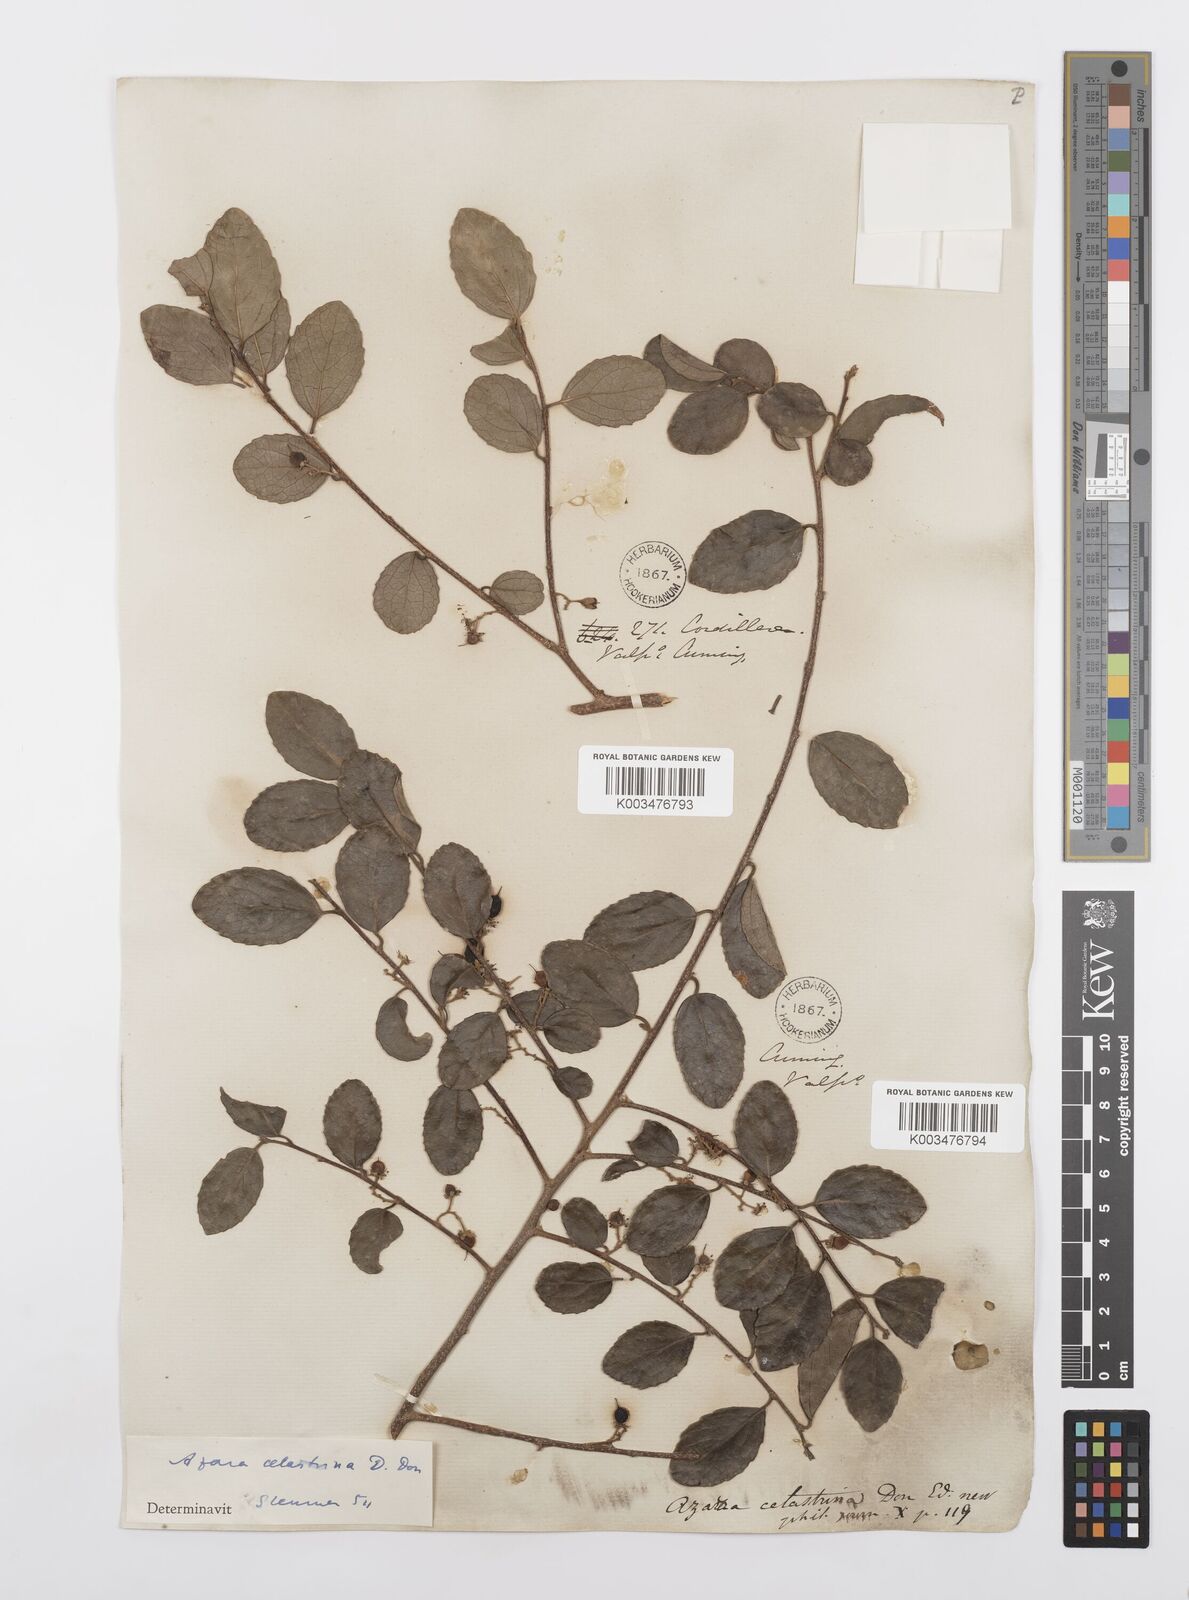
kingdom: Plantae
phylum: Tracheophyta
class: Magnoliopsida
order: Malpighiales
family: Salicaceae
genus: Azara
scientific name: Azara celastrina
